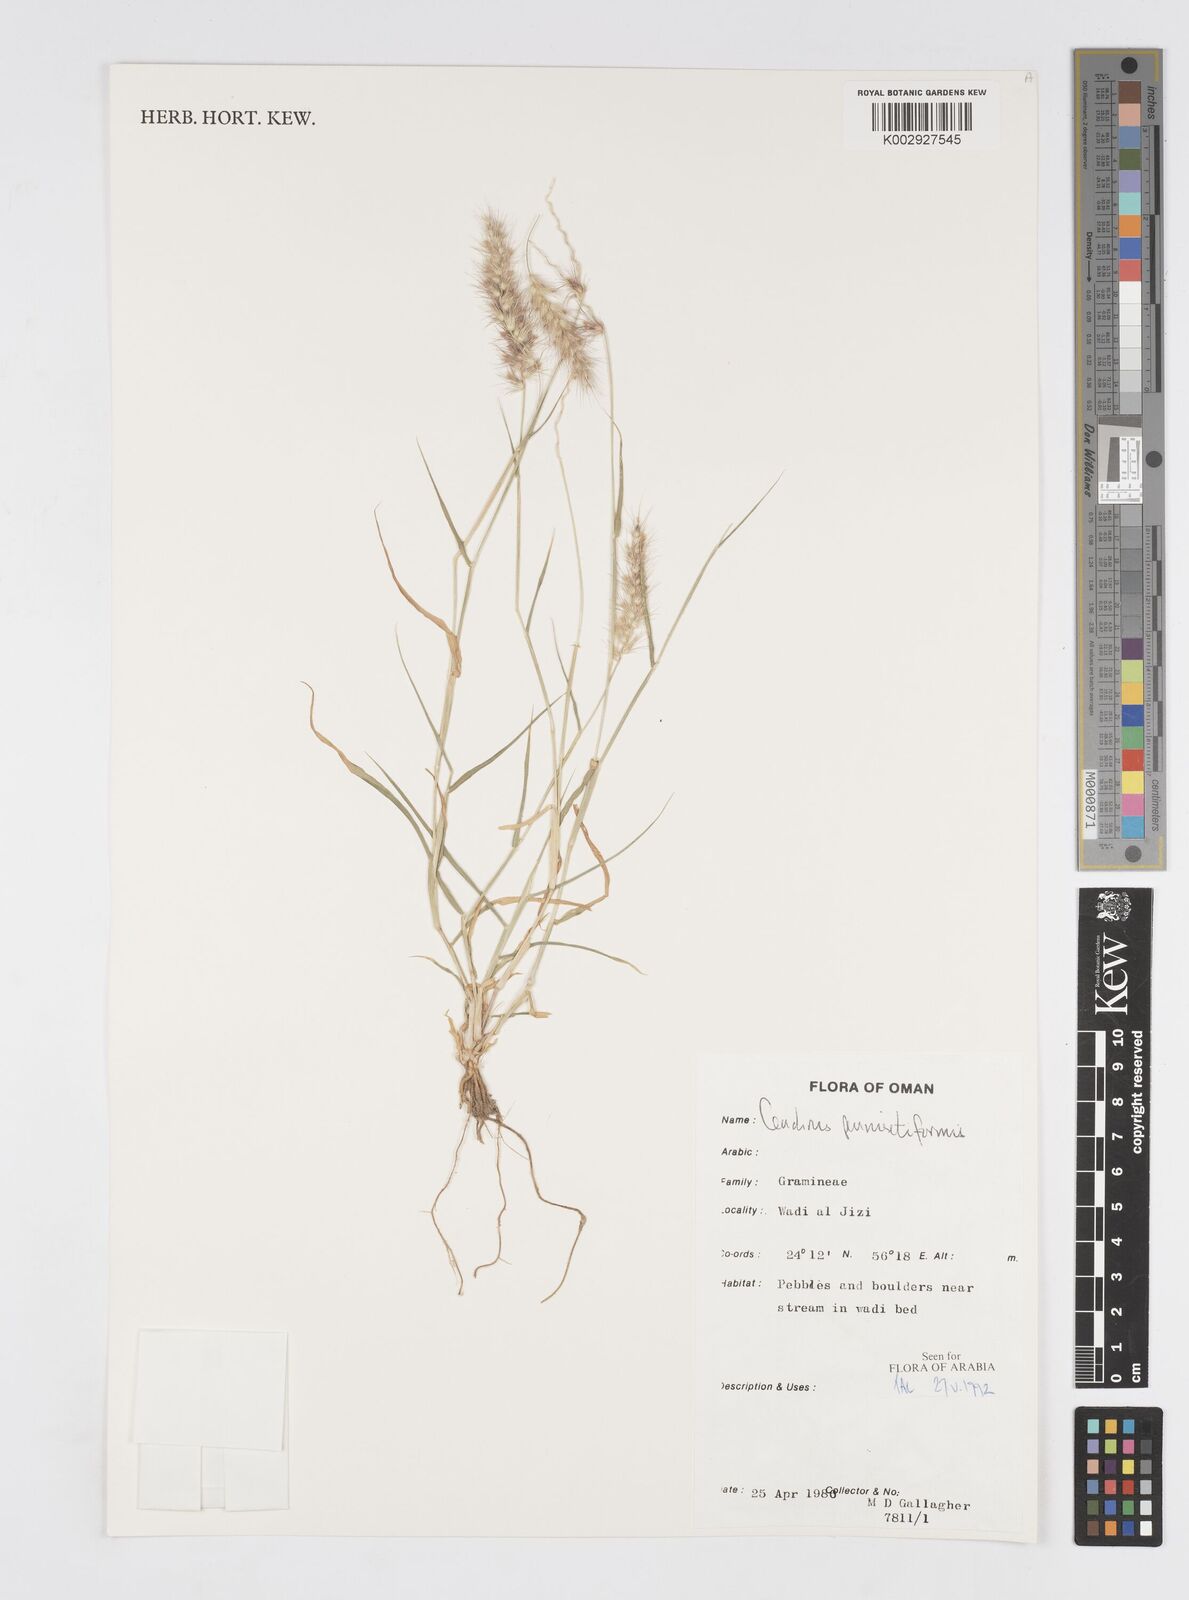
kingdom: Plantae
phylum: Tracheophyta
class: Liliopsida
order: Poales
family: Poaceae
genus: Cenchrus
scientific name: Cenchrus pennisetiformis
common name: Cloncurry
